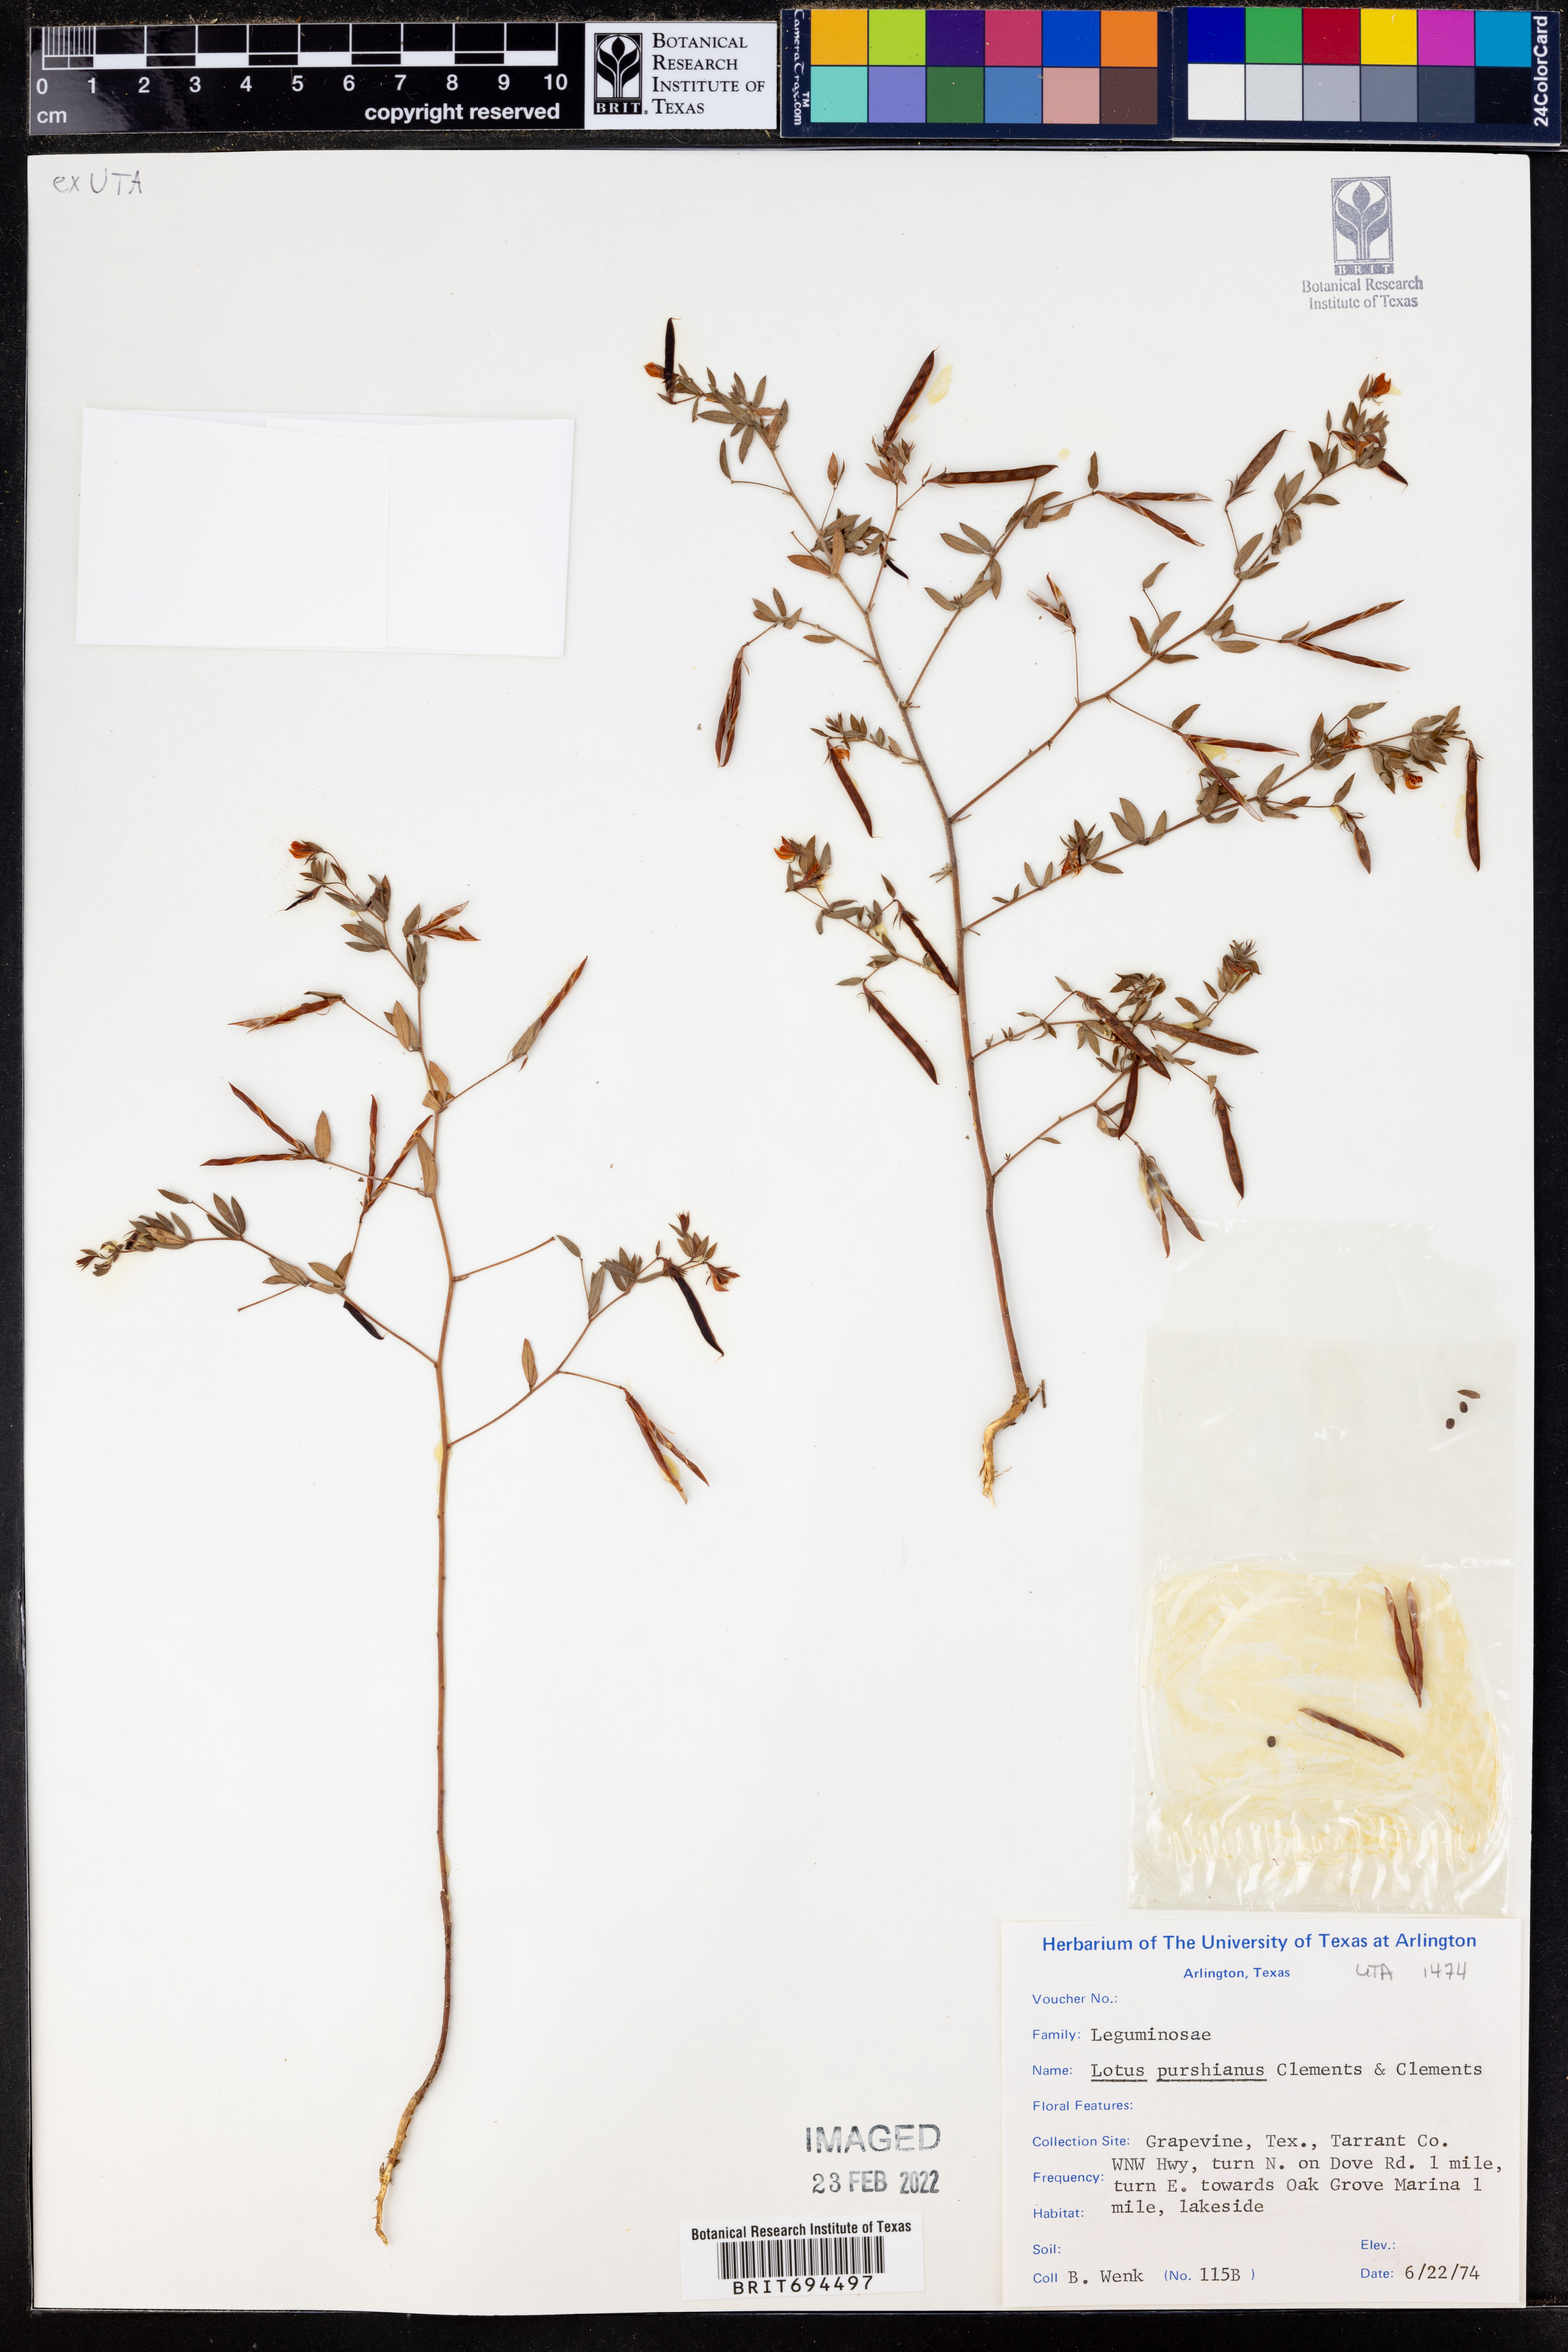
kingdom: Plantae
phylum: Tracheophyta
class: Magnoliopsida
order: Fabales
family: Fabaceae
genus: Acmispon
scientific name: Acmispon americanus
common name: American bird's-foot trefoil
